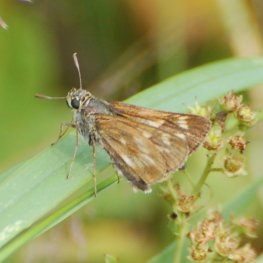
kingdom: Animalia
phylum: Arthropoda
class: Insecta
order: Lepidoptera
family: Hesperiidae
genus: Polites
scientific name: Polites
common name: Long Dash Skipper
